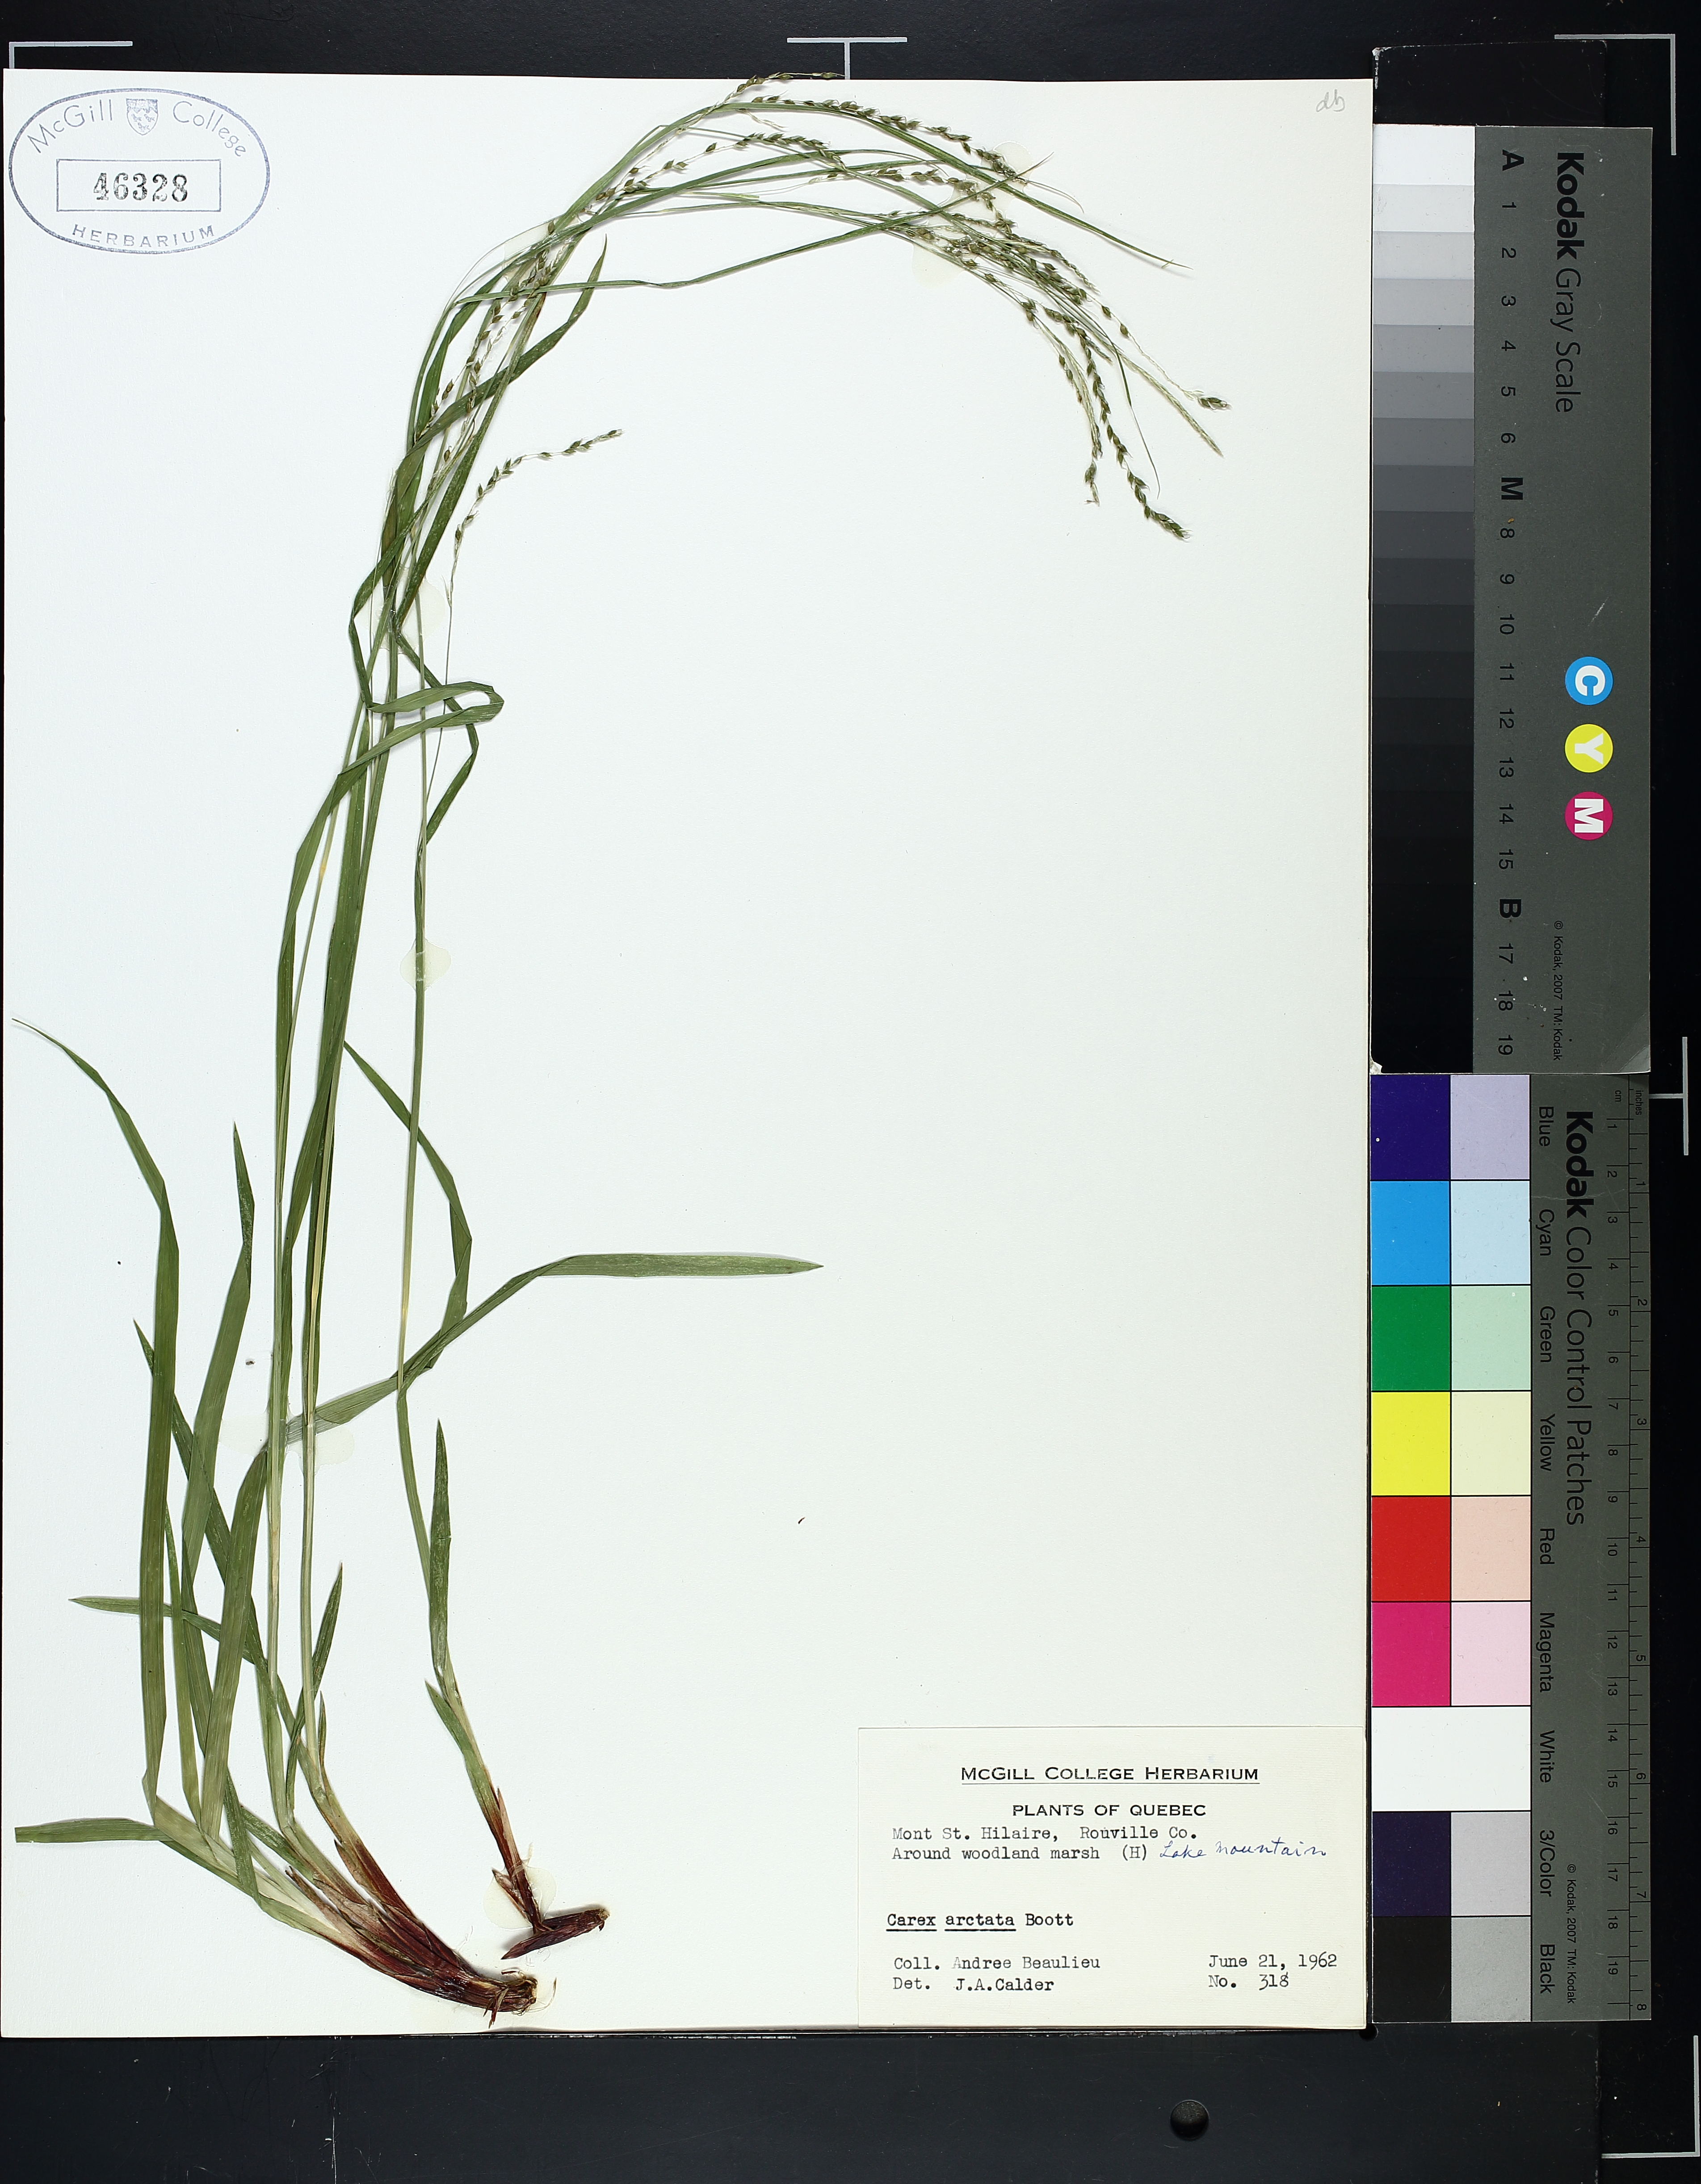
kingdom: Plantae
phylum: Tracheophyta
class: Liliopsida
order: Poales
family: Cyperaceae
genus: Carex
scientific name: Carex arctata
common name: Black sedge
